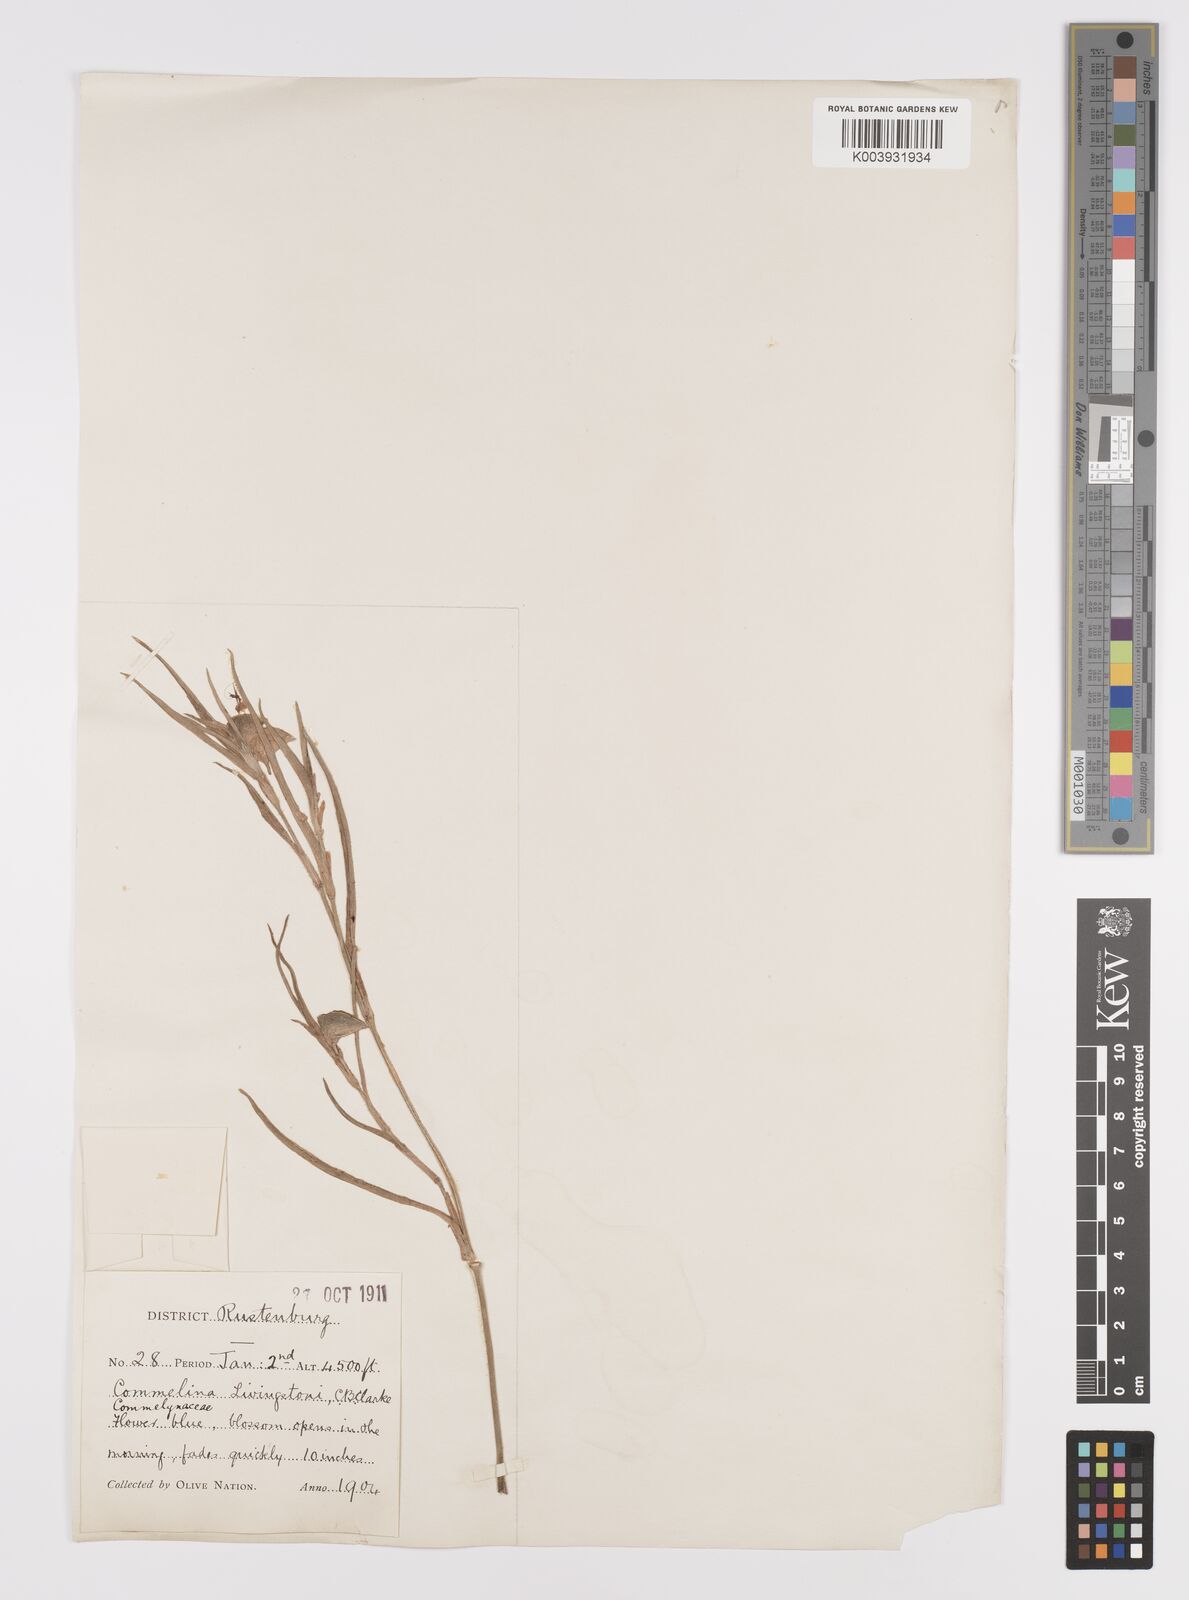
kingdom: Plantae
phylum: Tracheophyta
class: Liliopsida
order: Commelinales
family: Commelinaceae
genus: Commelina
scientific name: Commelina erecta
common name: Blousel blommetjie
